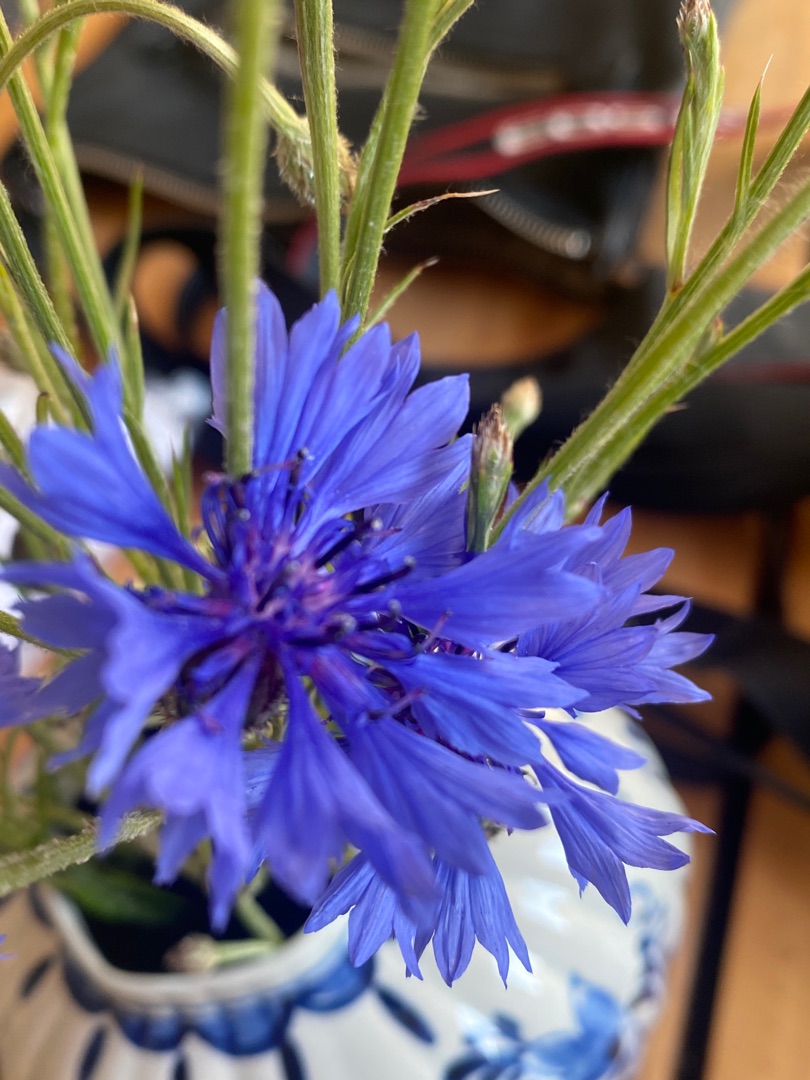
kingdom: Plantae
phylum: Tracheophyta
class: Magnoliopsida
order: Asterales
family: Asteraceae
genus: Centaurea
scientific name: Centaurea cyanus
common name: Kornblomst
